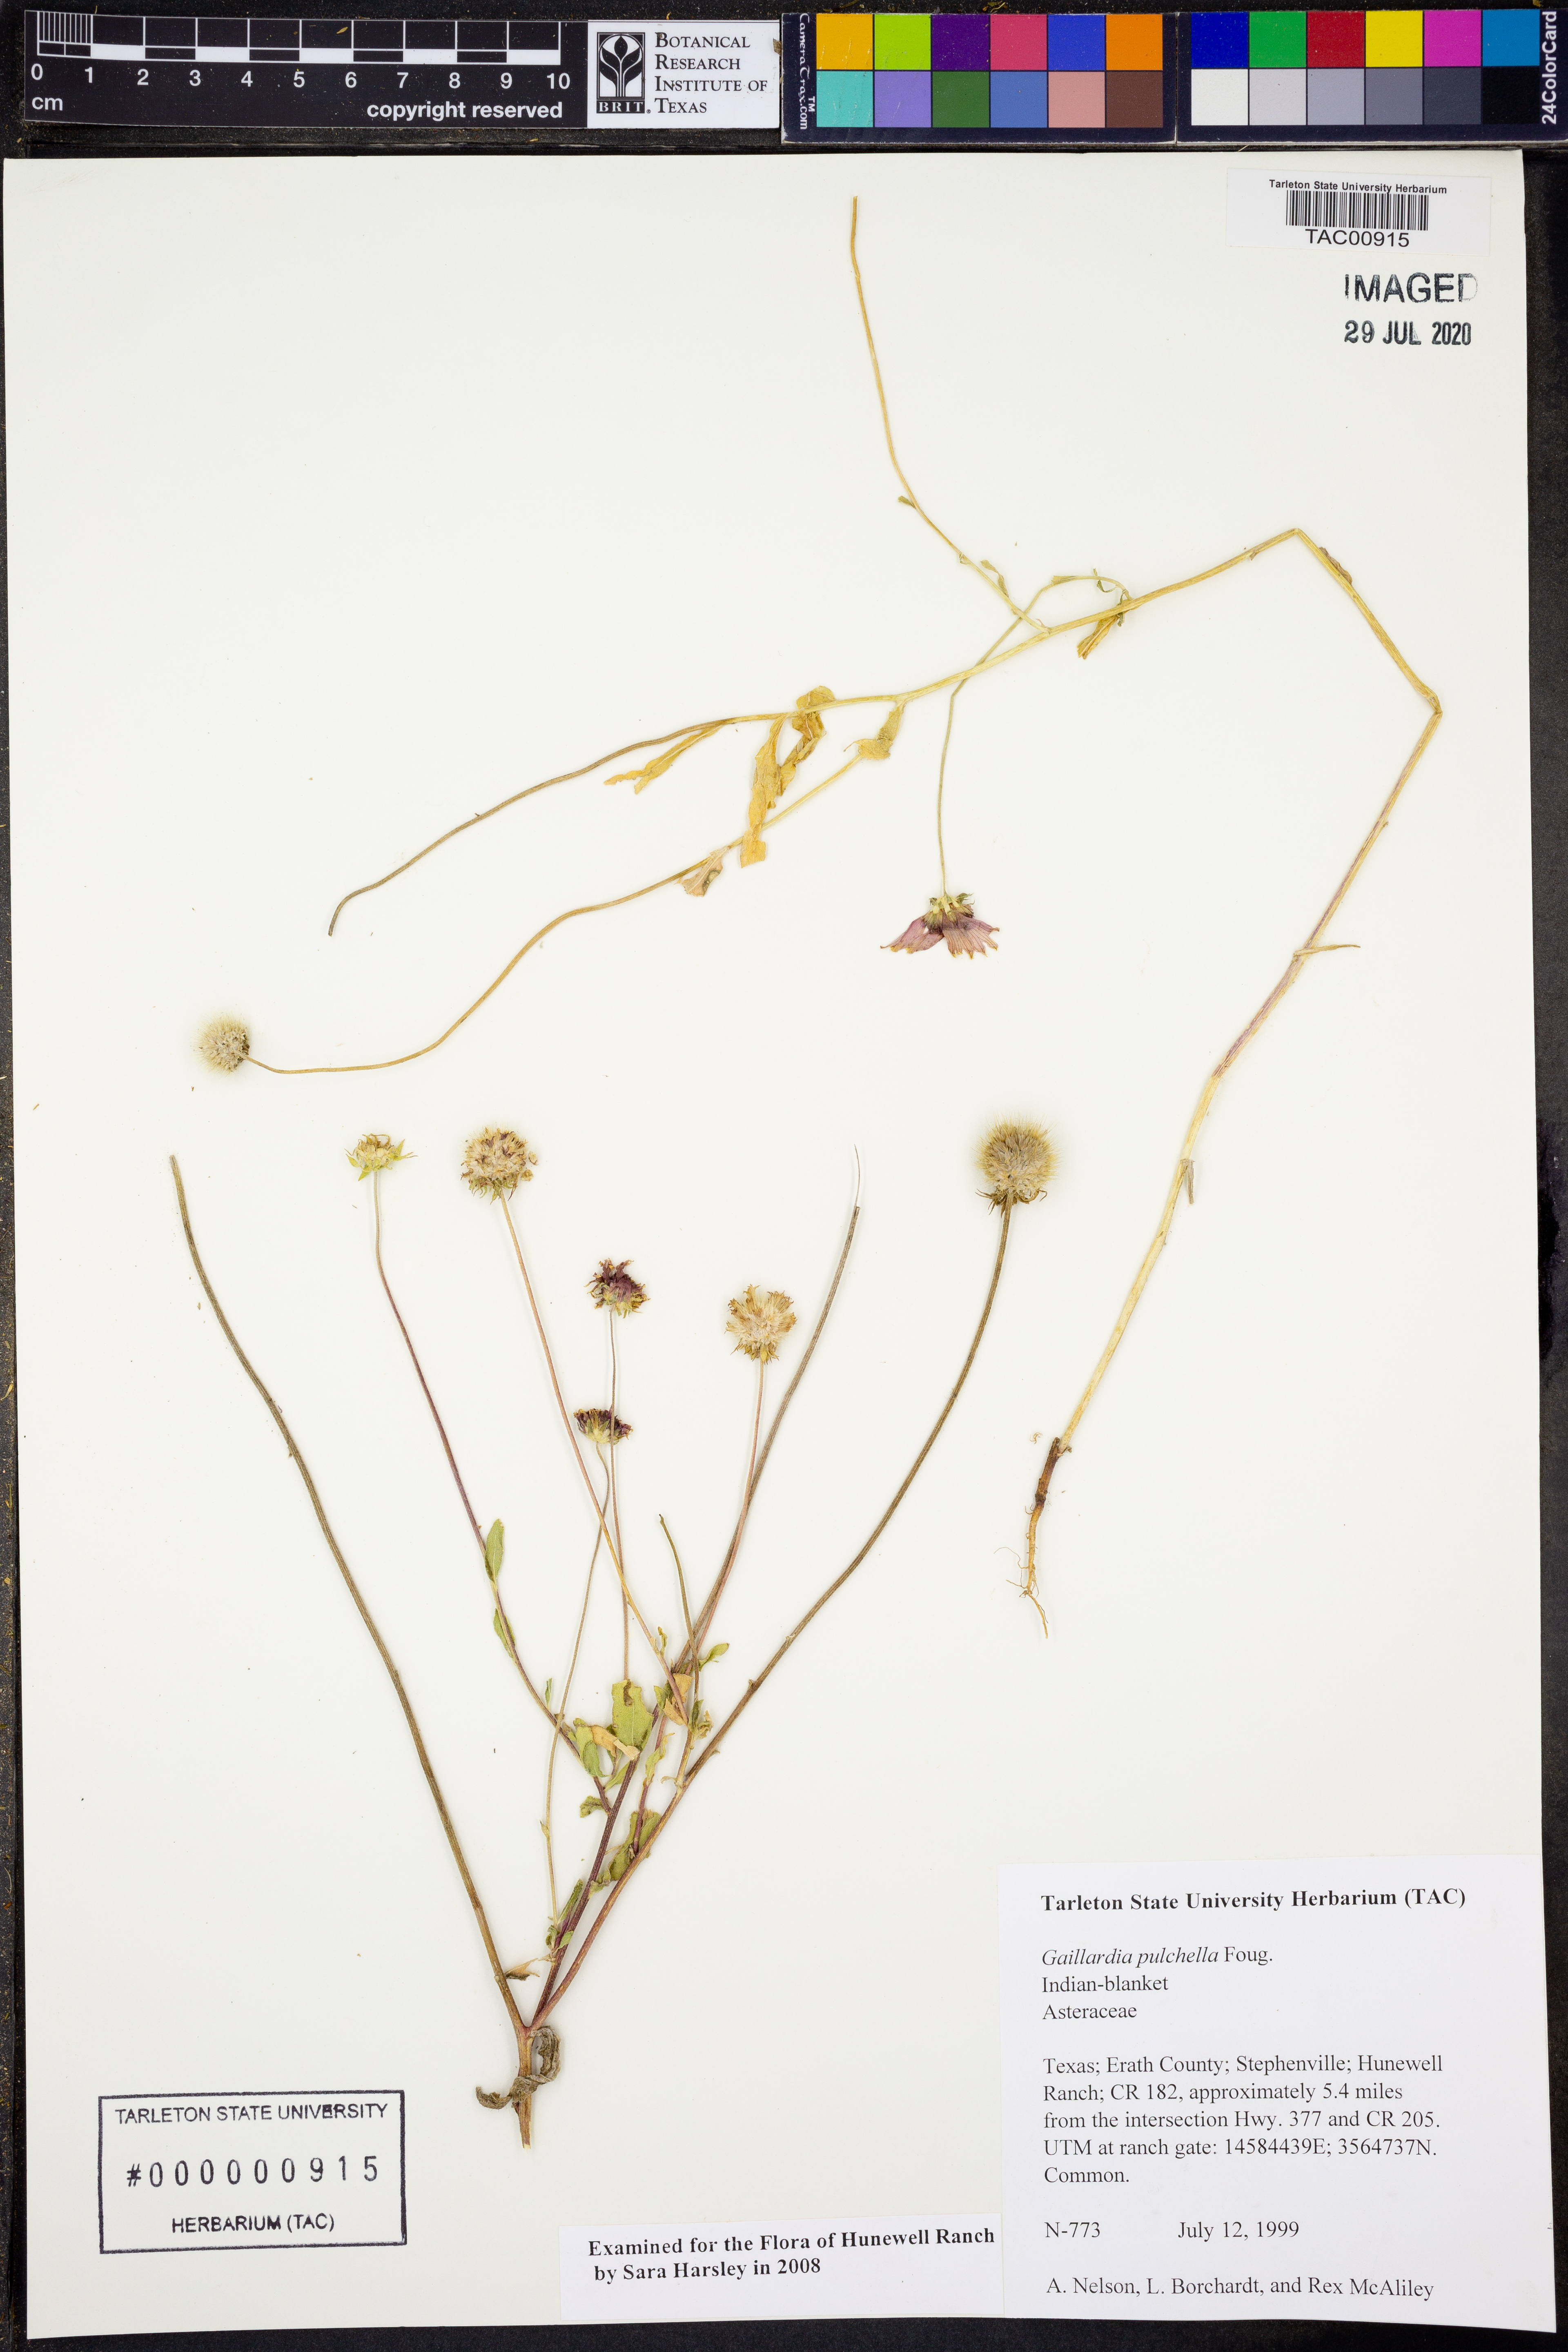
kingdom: Plantae
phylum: Tracheophyta
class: Magnoliopsida
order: Asterales
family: Asteraceae
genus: Gaillardia
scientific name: Gaillardia pulchella
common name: Firewheel
